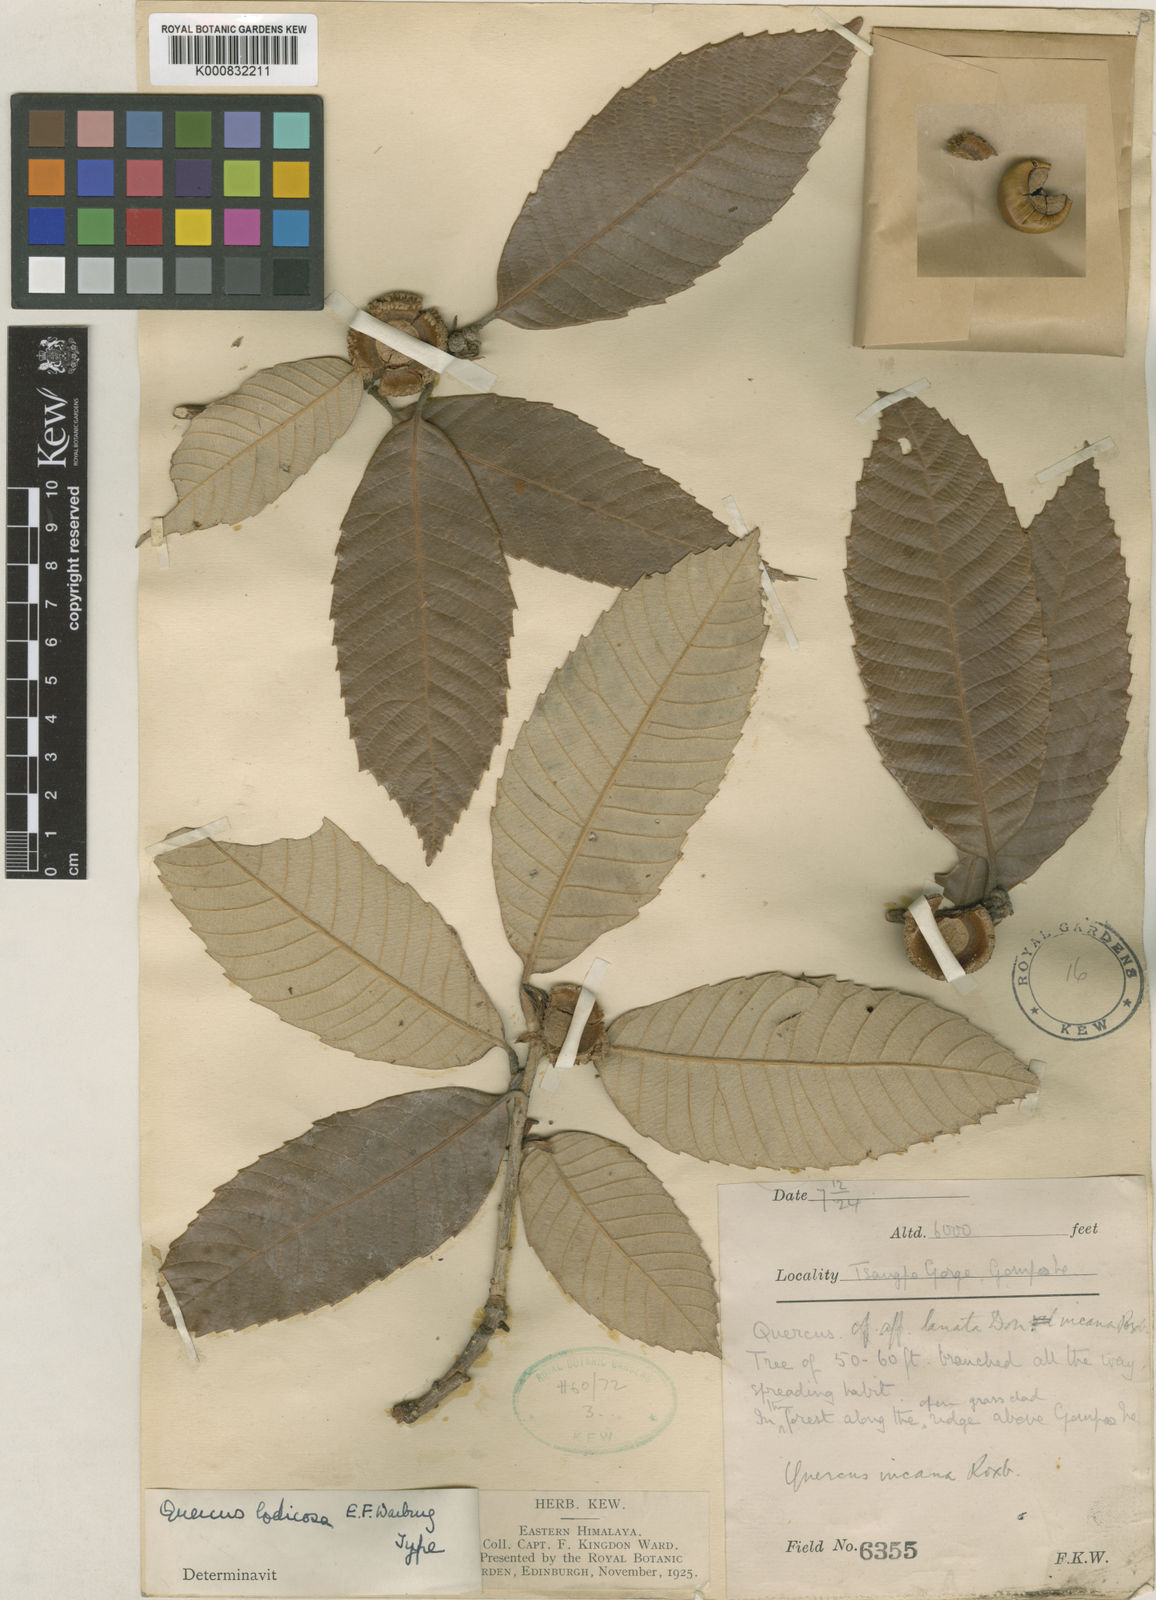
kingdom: Plantae
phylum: Tracheophyta
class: Magnoliopsida
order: Fagales
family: Fagaceae
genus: Quercus
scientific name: Quercus lodicosa
